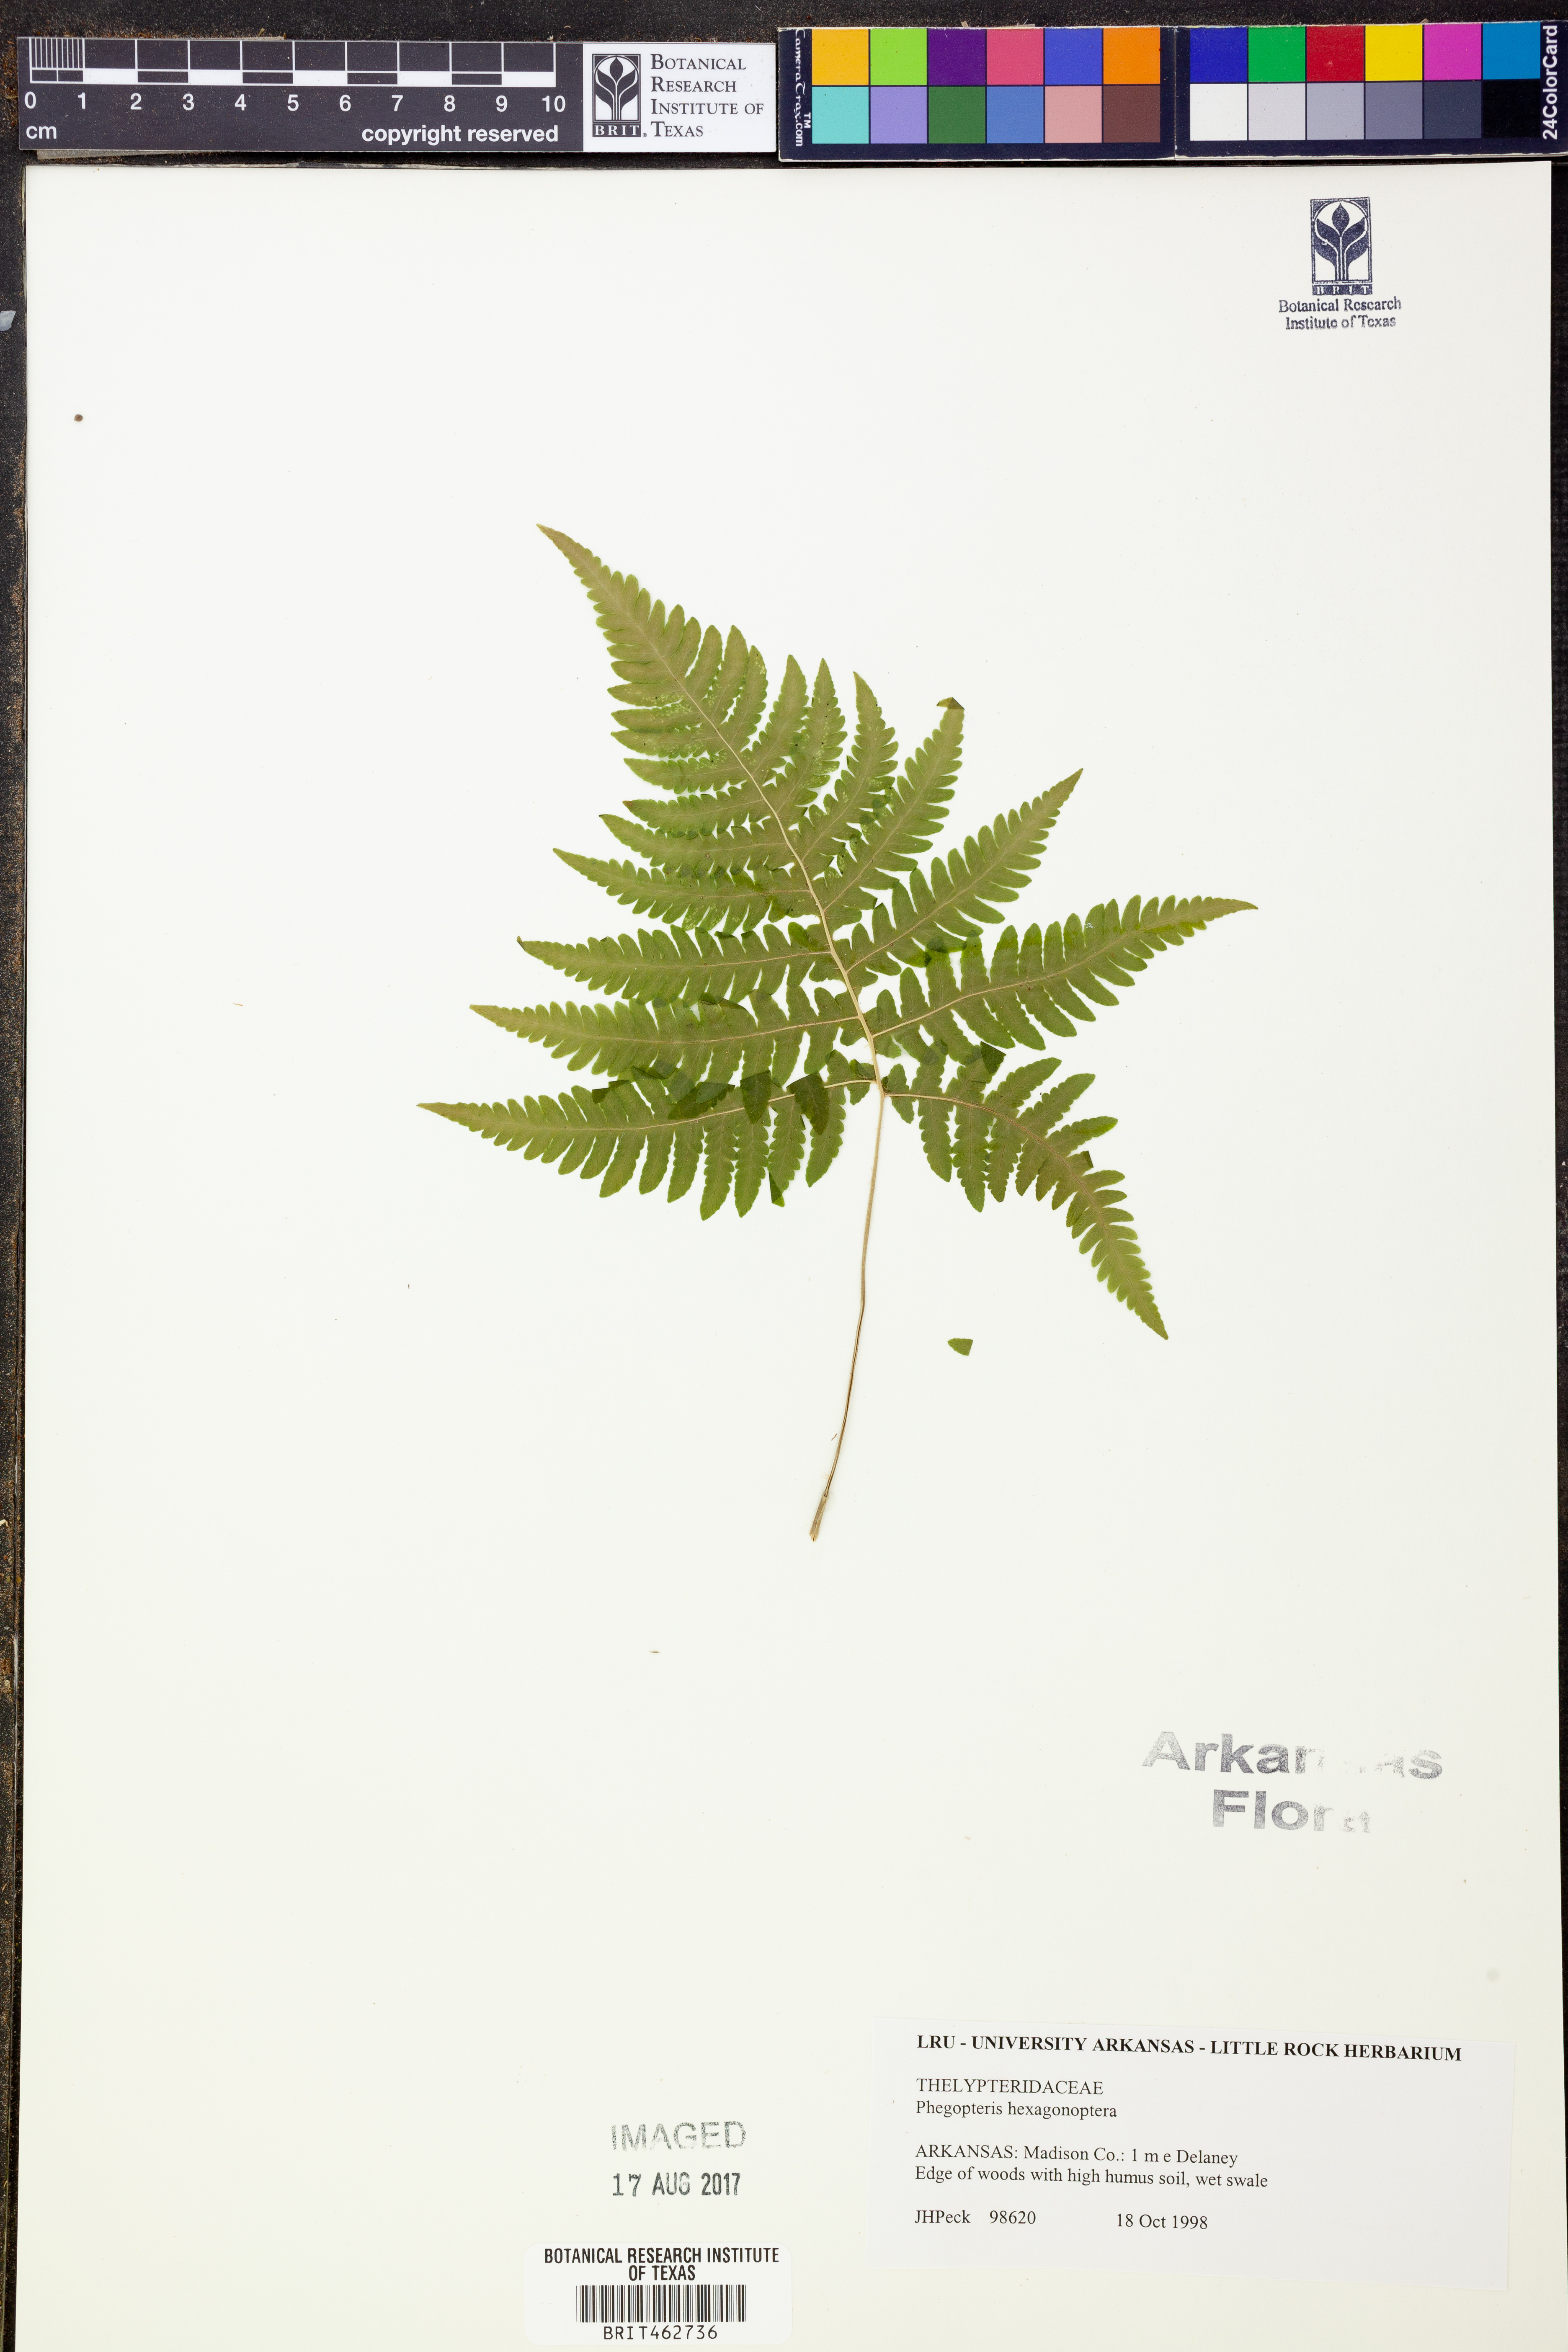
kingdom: Plantae
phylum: Tracheophyta
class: Polypodiopsida
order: Polypodiales
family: Thelypteridaceae
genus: Phegopteris
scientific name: Phegopteris hexagonoptera
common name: Broad beech fern
